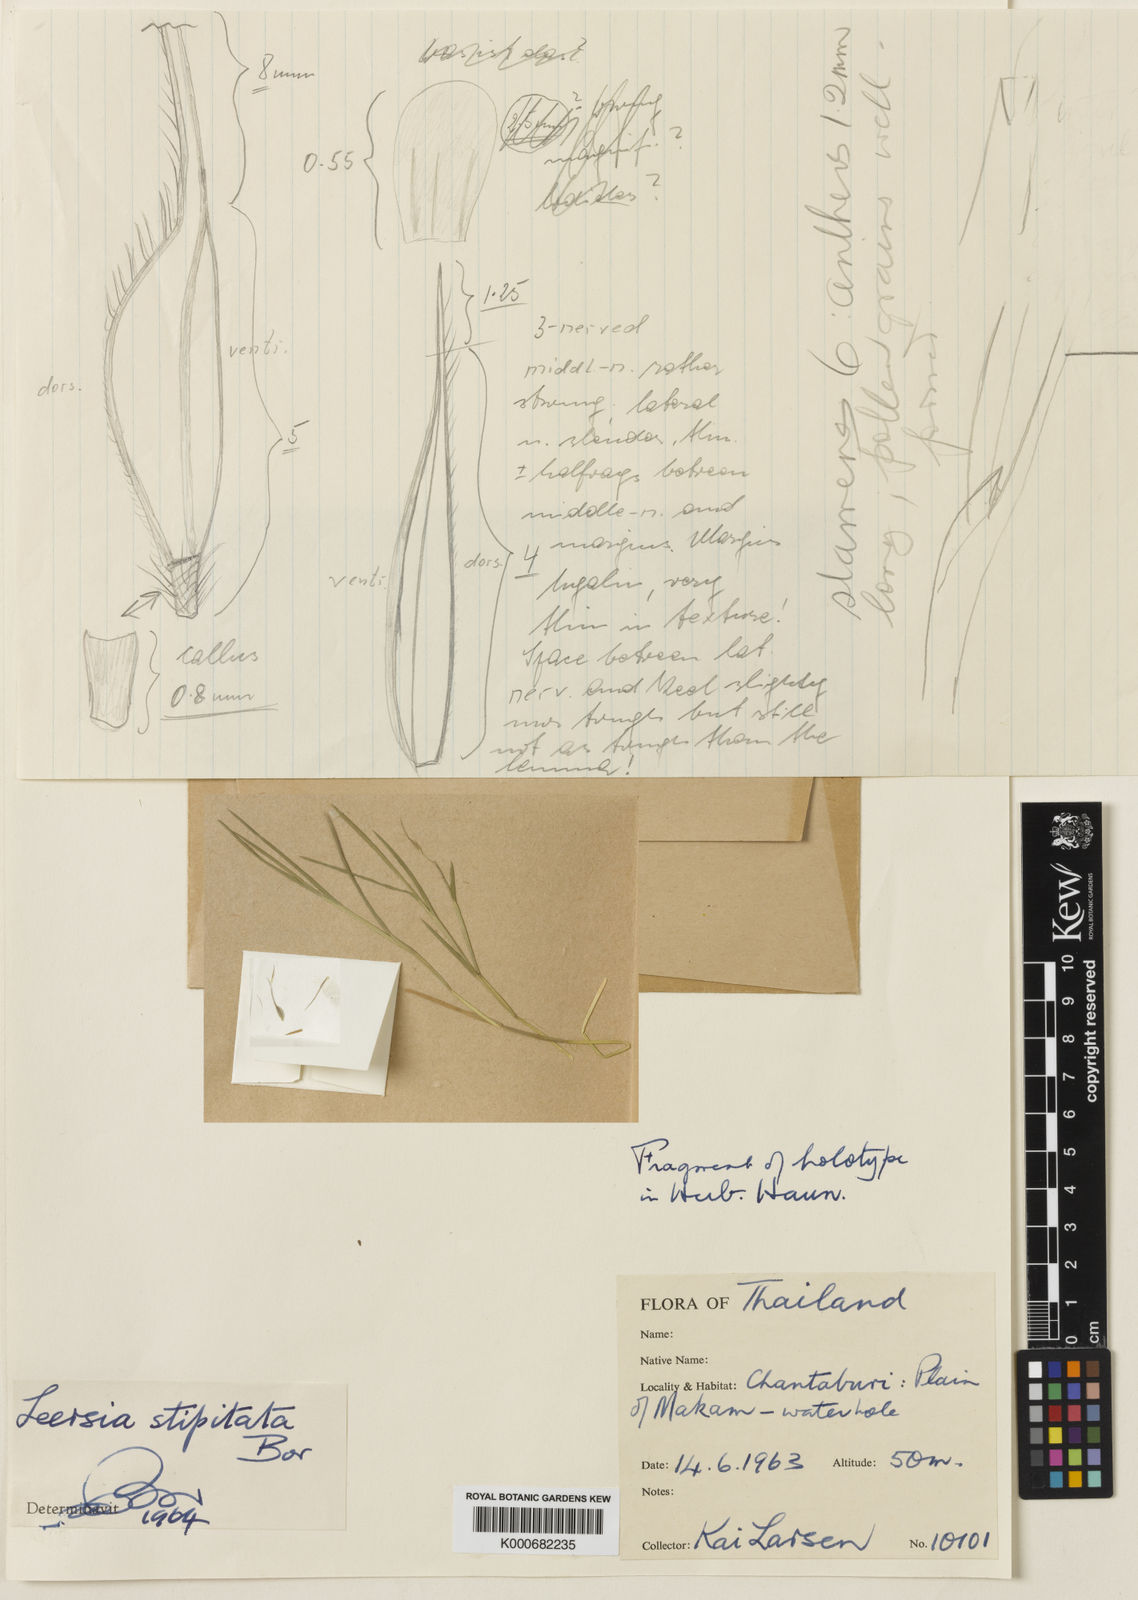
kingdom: Plantae
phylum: Tracheophyta
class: Liliopsida
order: Poales
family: Poaceae
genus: Leersia
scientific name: Leersia stipitata
